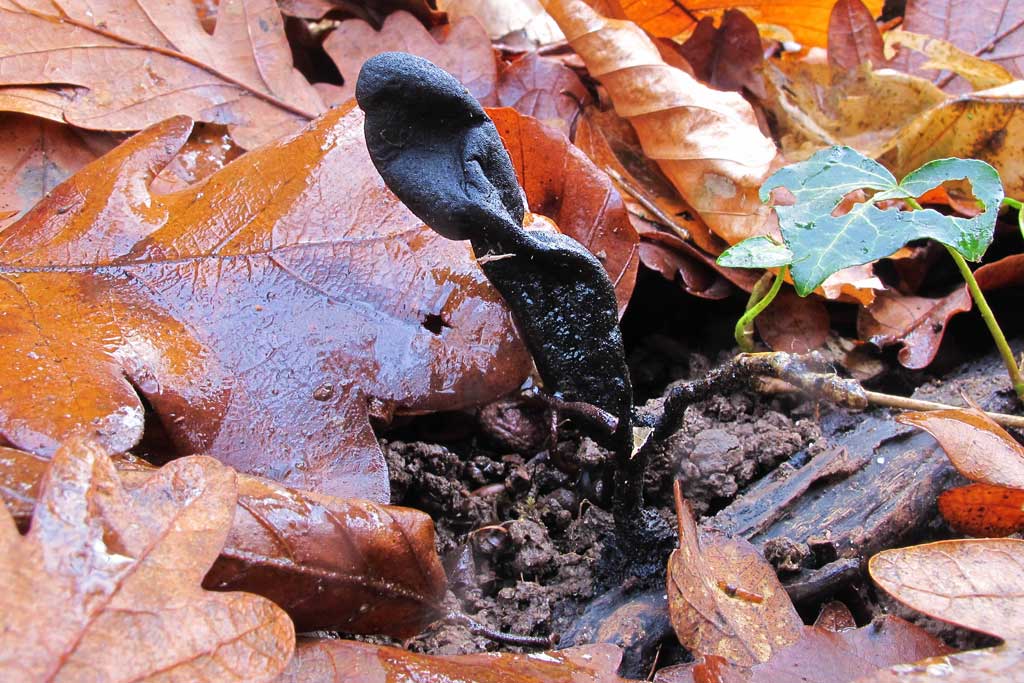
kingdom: Fungi
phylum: Ascomycota
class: Sordariomycetes
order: Xylariales
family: Xylariaceae
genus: Xylaria
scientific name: Xylaria longipes
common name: slank stødsvamp
